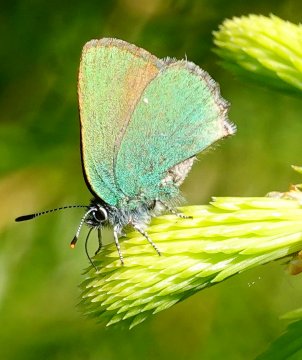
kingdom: Animalia
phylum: Arthropoda
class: Insecta
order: Lepidoptera
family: Lycaenidae
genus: Callophrys
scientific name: Callophrys rubi
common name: Green Hairstreak
